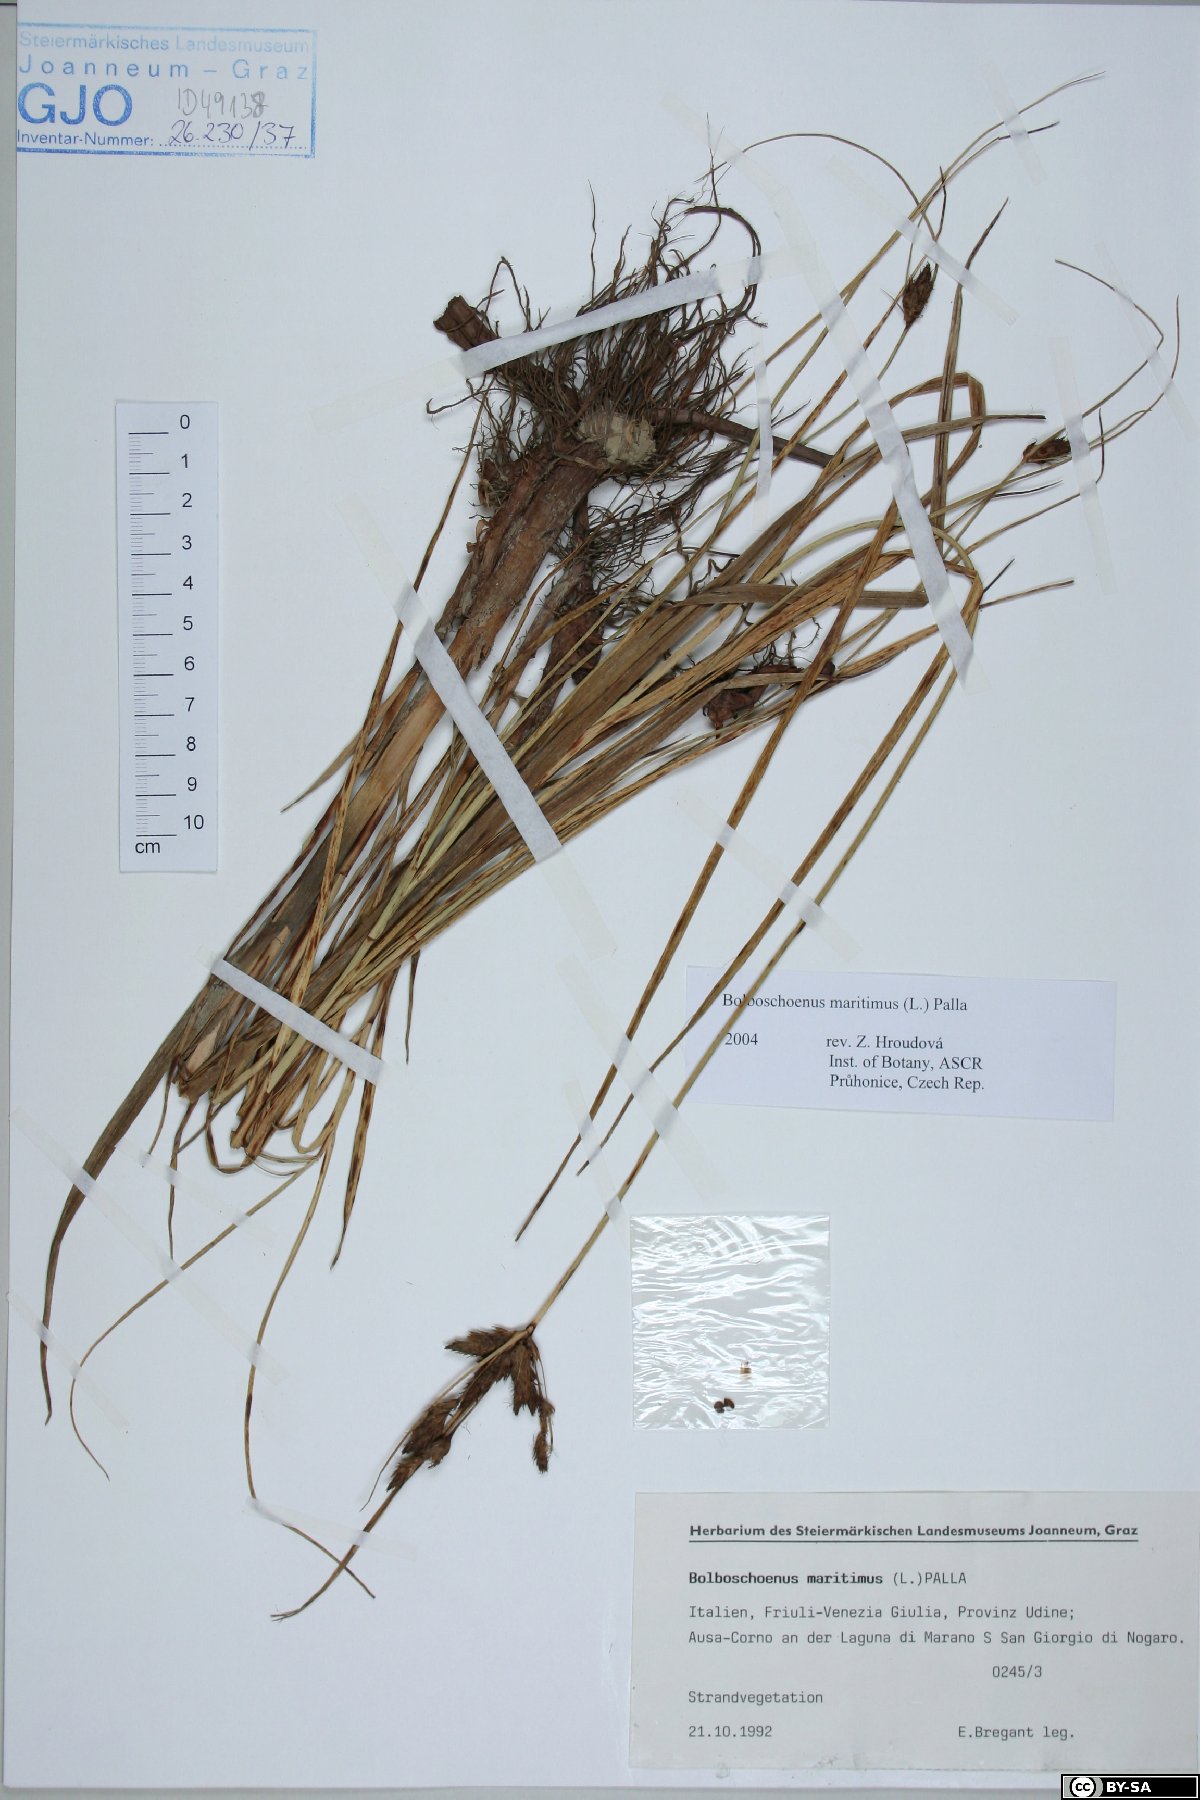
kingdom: Plantae
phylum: Tracheophyta
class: Liliopsida
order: Poales
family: Cyperaceae
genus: Bolboschoenus
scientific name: Bolboschoenus maritimus
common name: Sea club-rush
